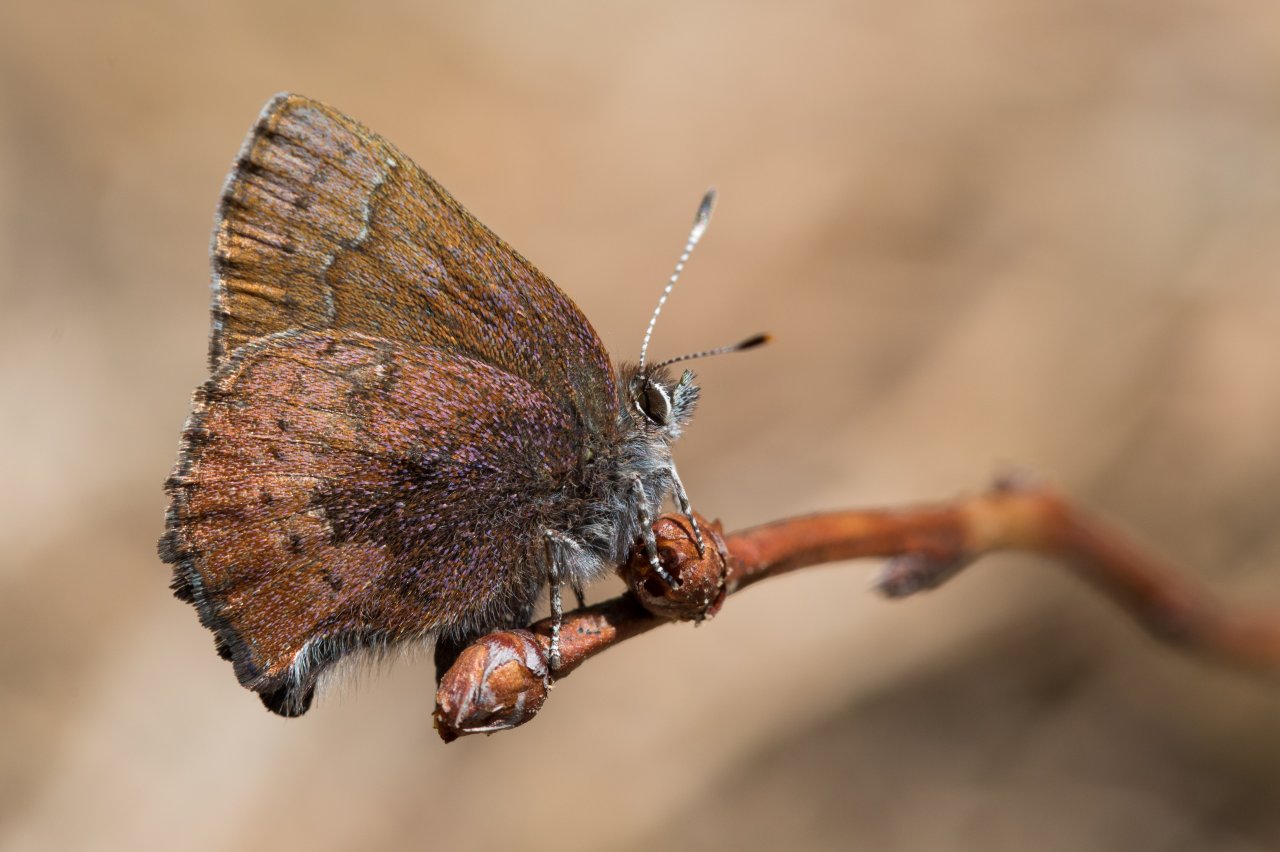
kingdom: Animalia
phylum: Arthropoda
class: Insecta
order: Lepidoptera
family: Lycaenidae
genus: Incisalia
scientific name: Incisalia irioides
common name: Brown Elfin
